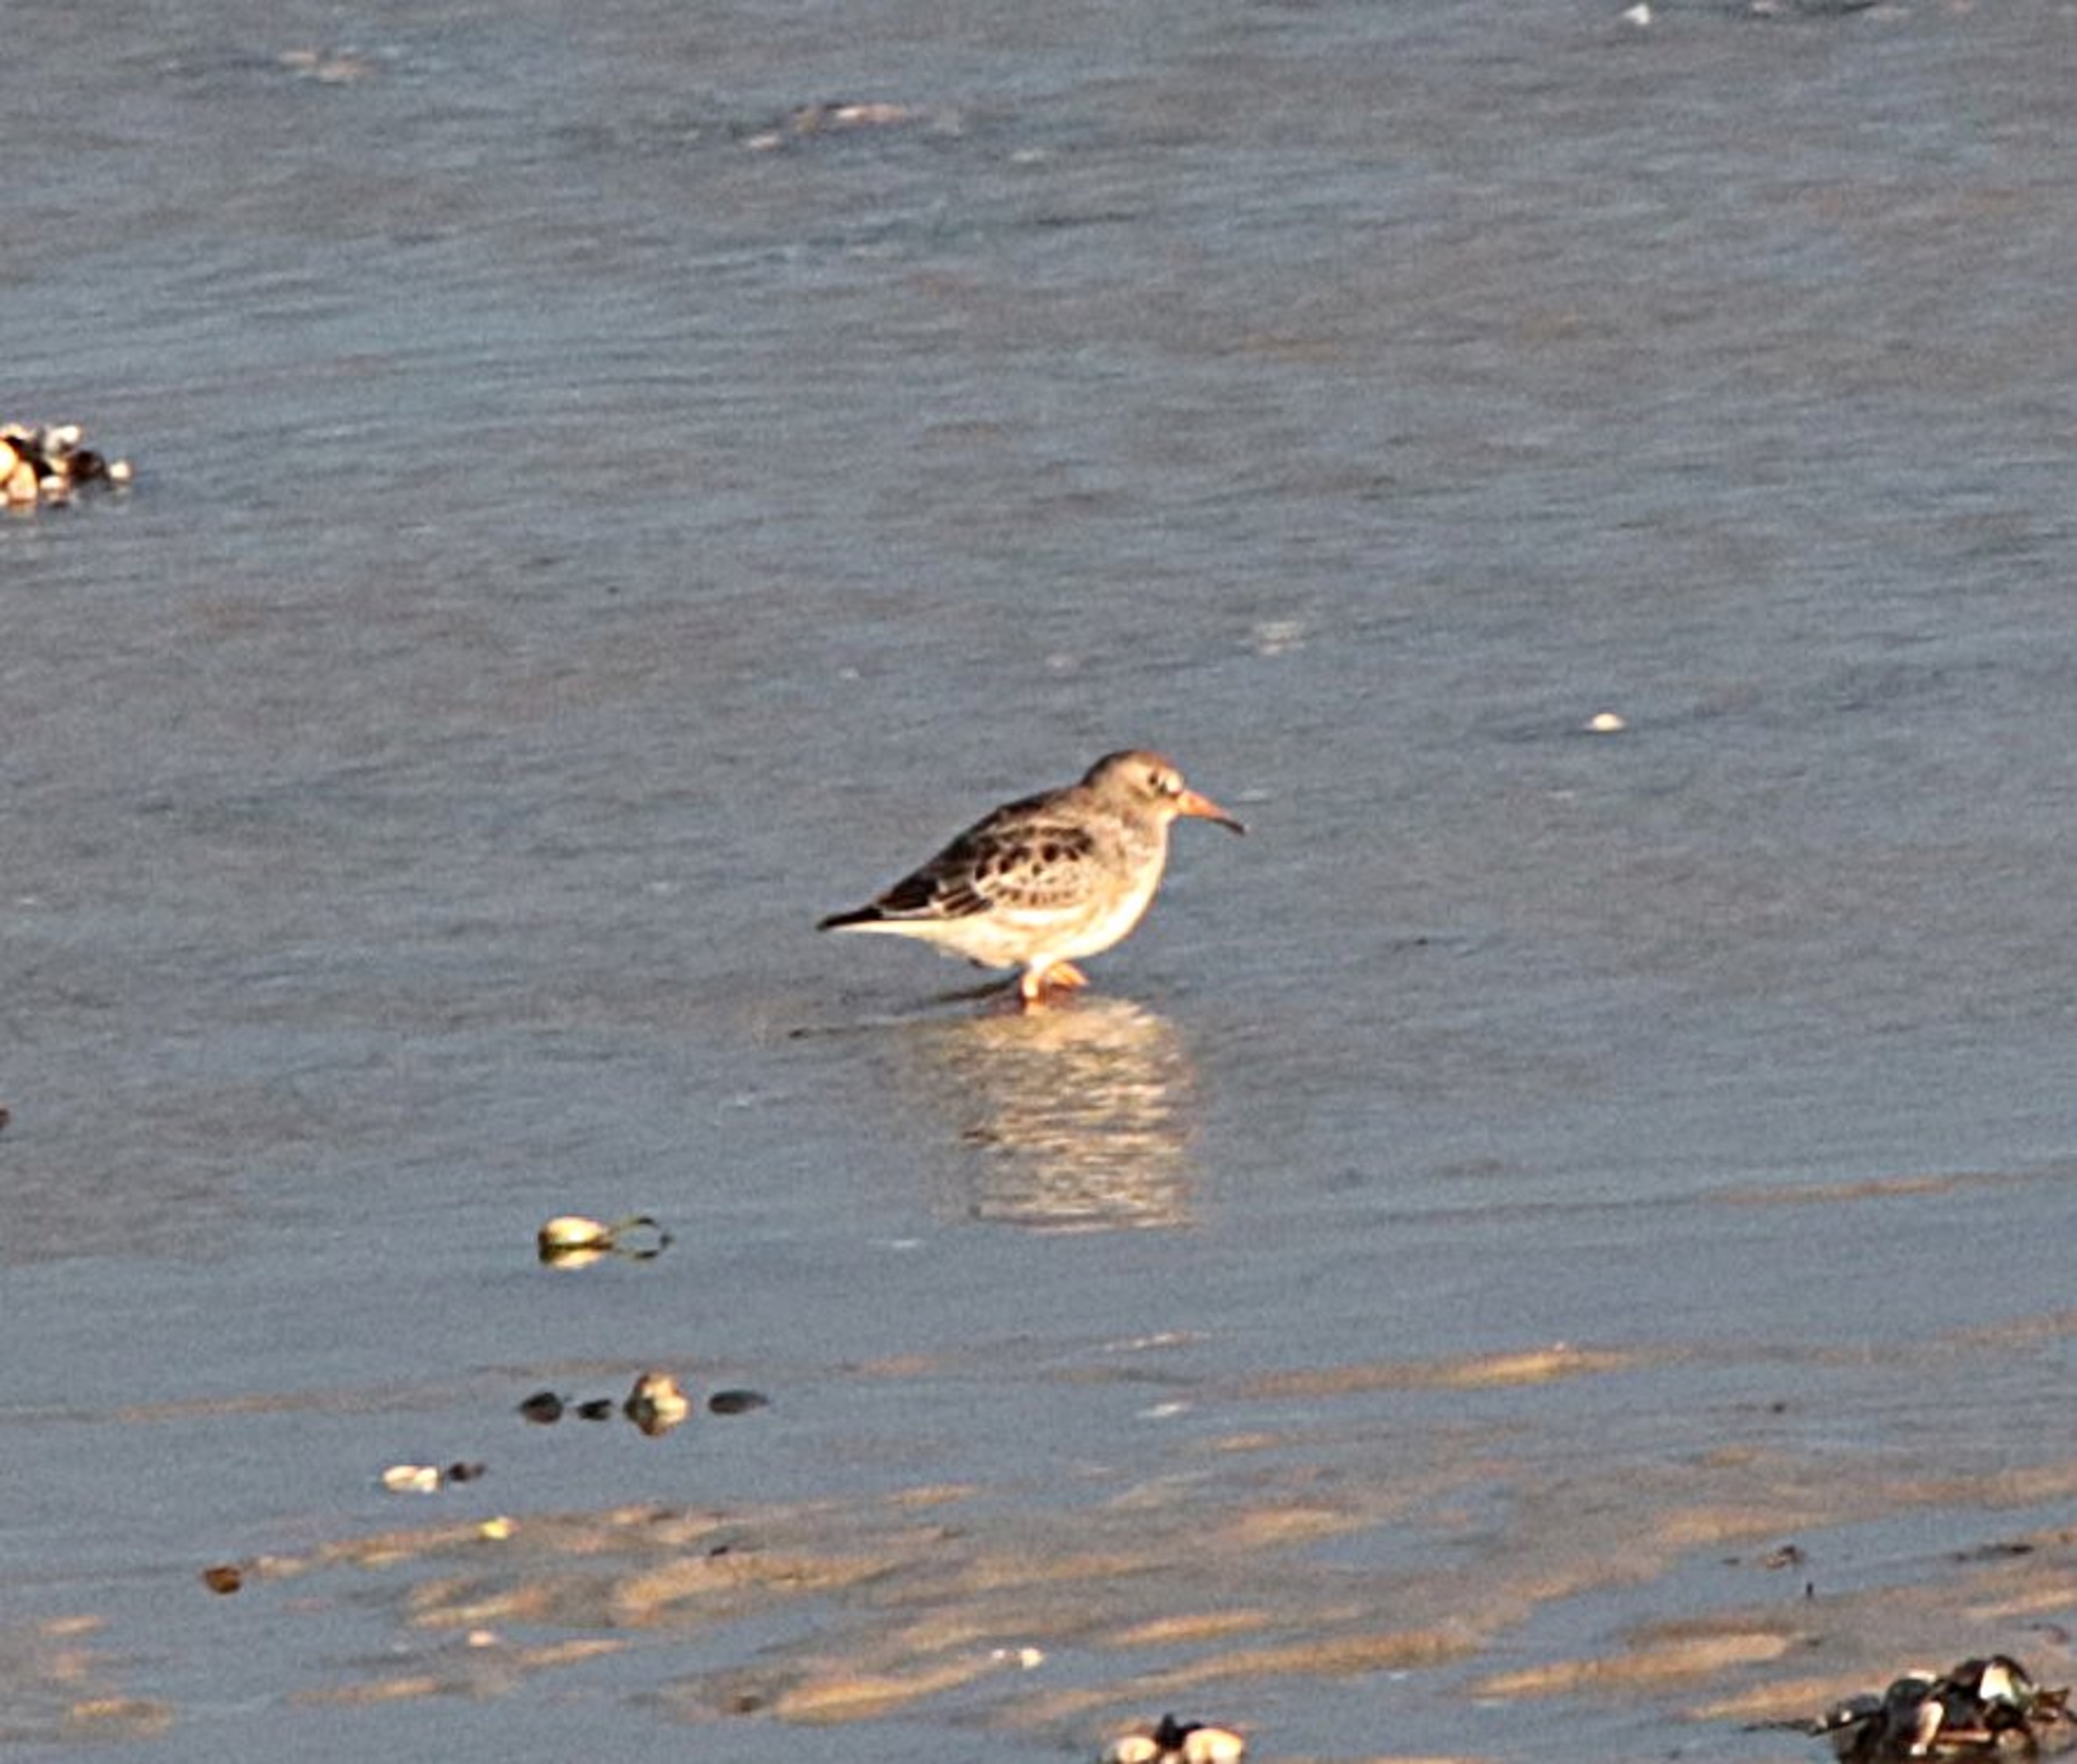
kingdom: Animalia
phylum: Chordata
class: Aves
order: Charadriiformes
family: Scolopacidae
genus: Calidris
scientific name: Calidris maritima
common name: Sortgrå ryle
